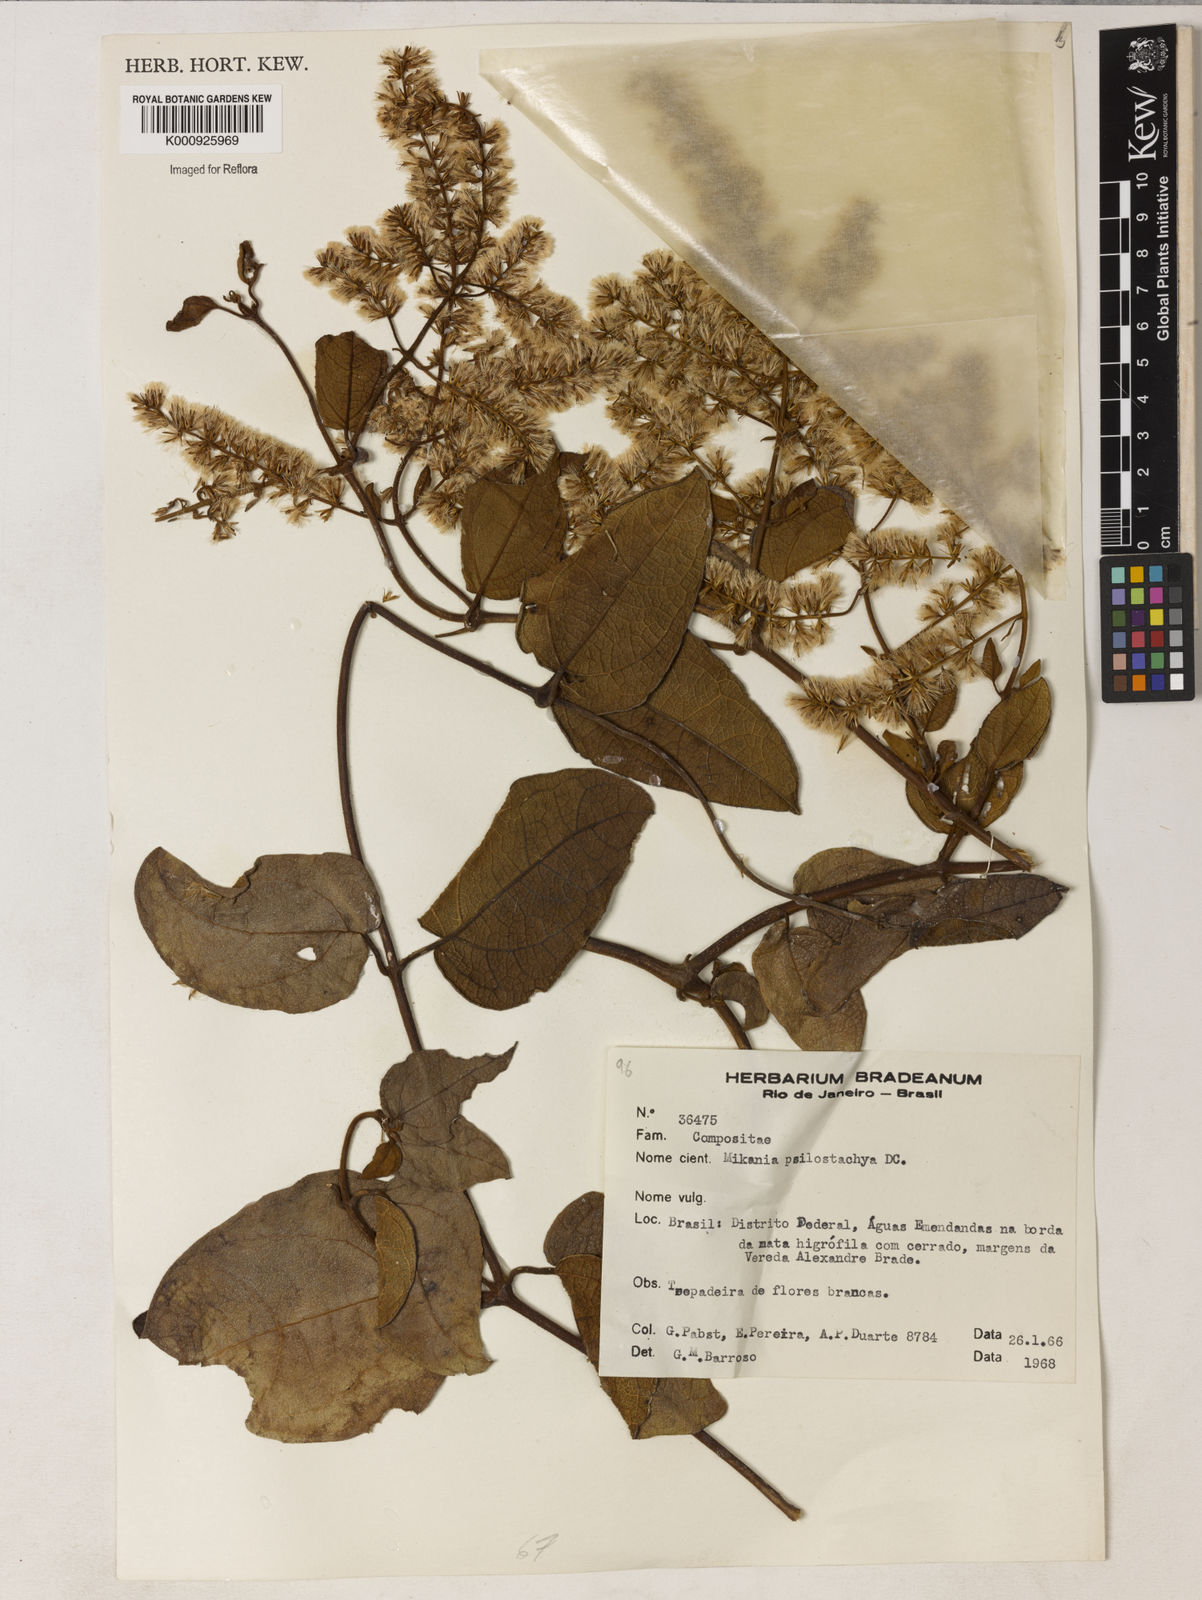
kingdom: Plantae
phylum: Tracheophyta
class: Magnoliopsida
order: Asterales
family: Asteraceae
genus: Mikania
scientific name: Mikania psilostachya
